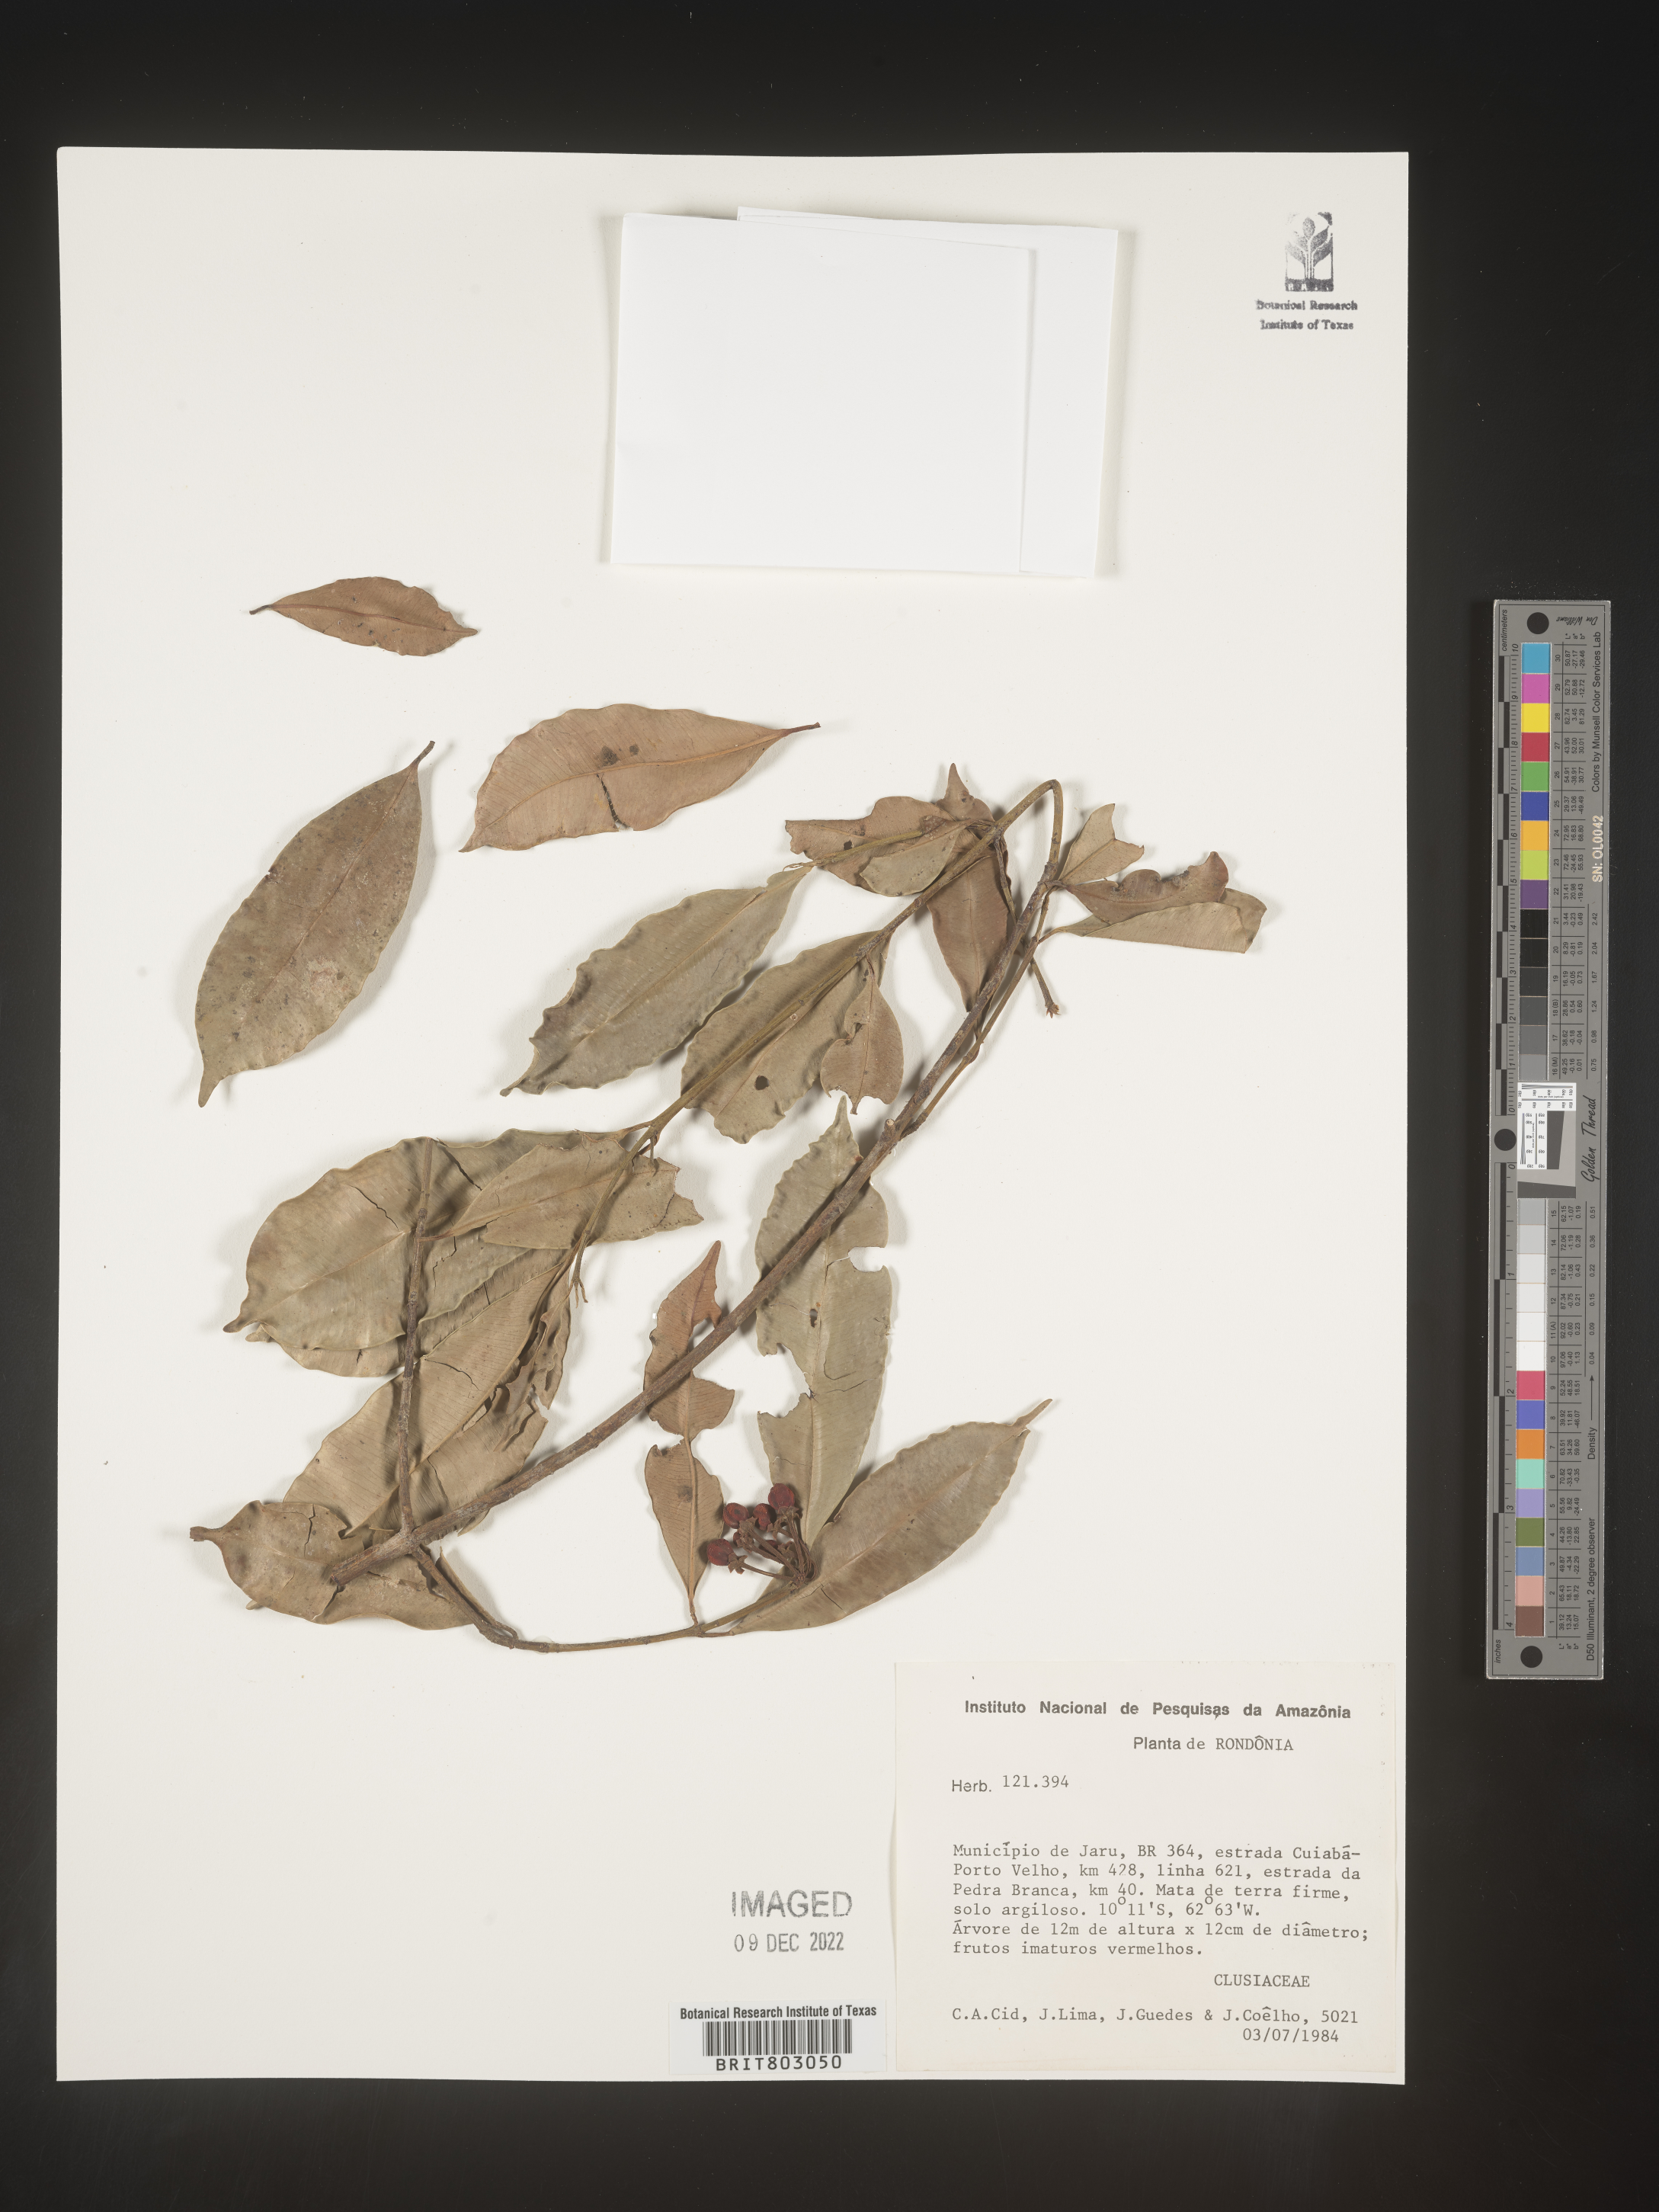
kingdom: Plantae
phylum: Tracheophyta
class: Magnoliopsida
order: Malpighiales
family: Clusiaceae
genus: Symphonia
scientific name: Symphonia
